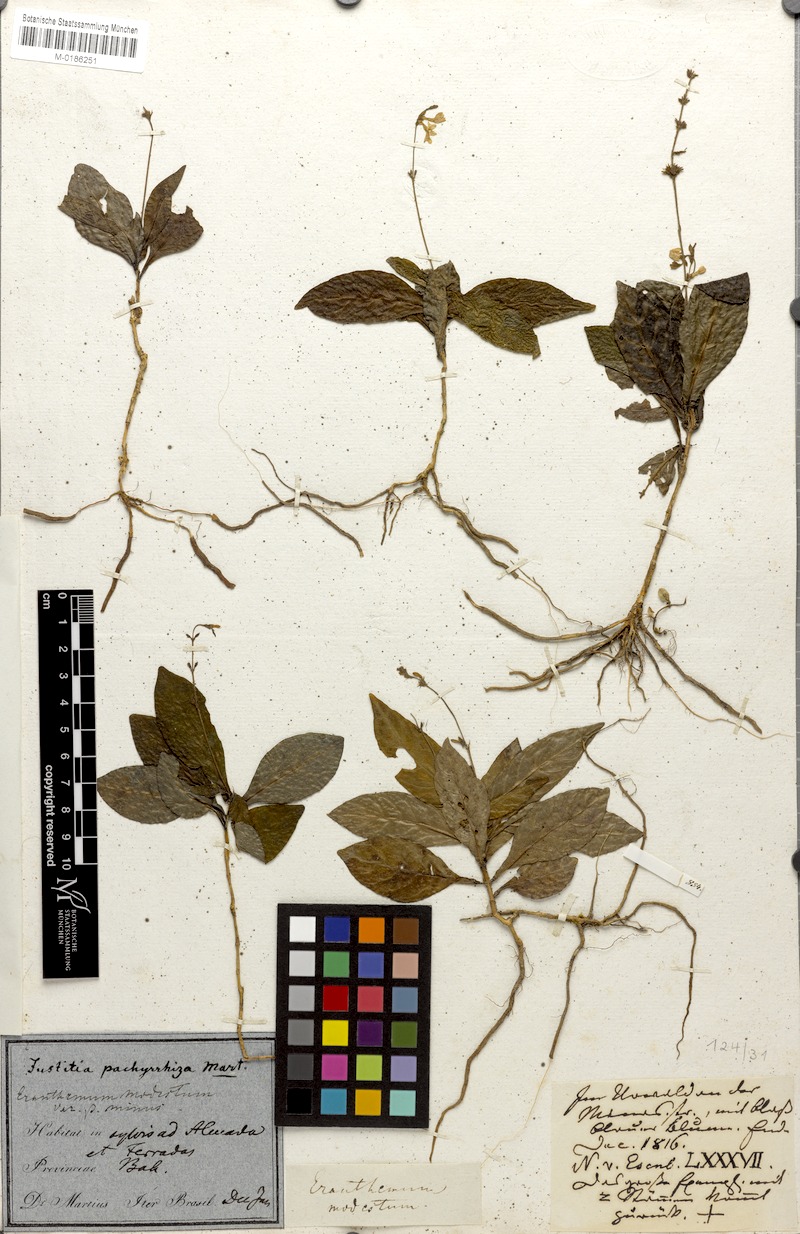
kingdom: Plantae
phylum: Tracheophyta
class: Magnoliopsida
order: Lamiales
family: Acanthaceae
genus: Pseuderanthemum
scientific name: Pseuderanthemum modestum
